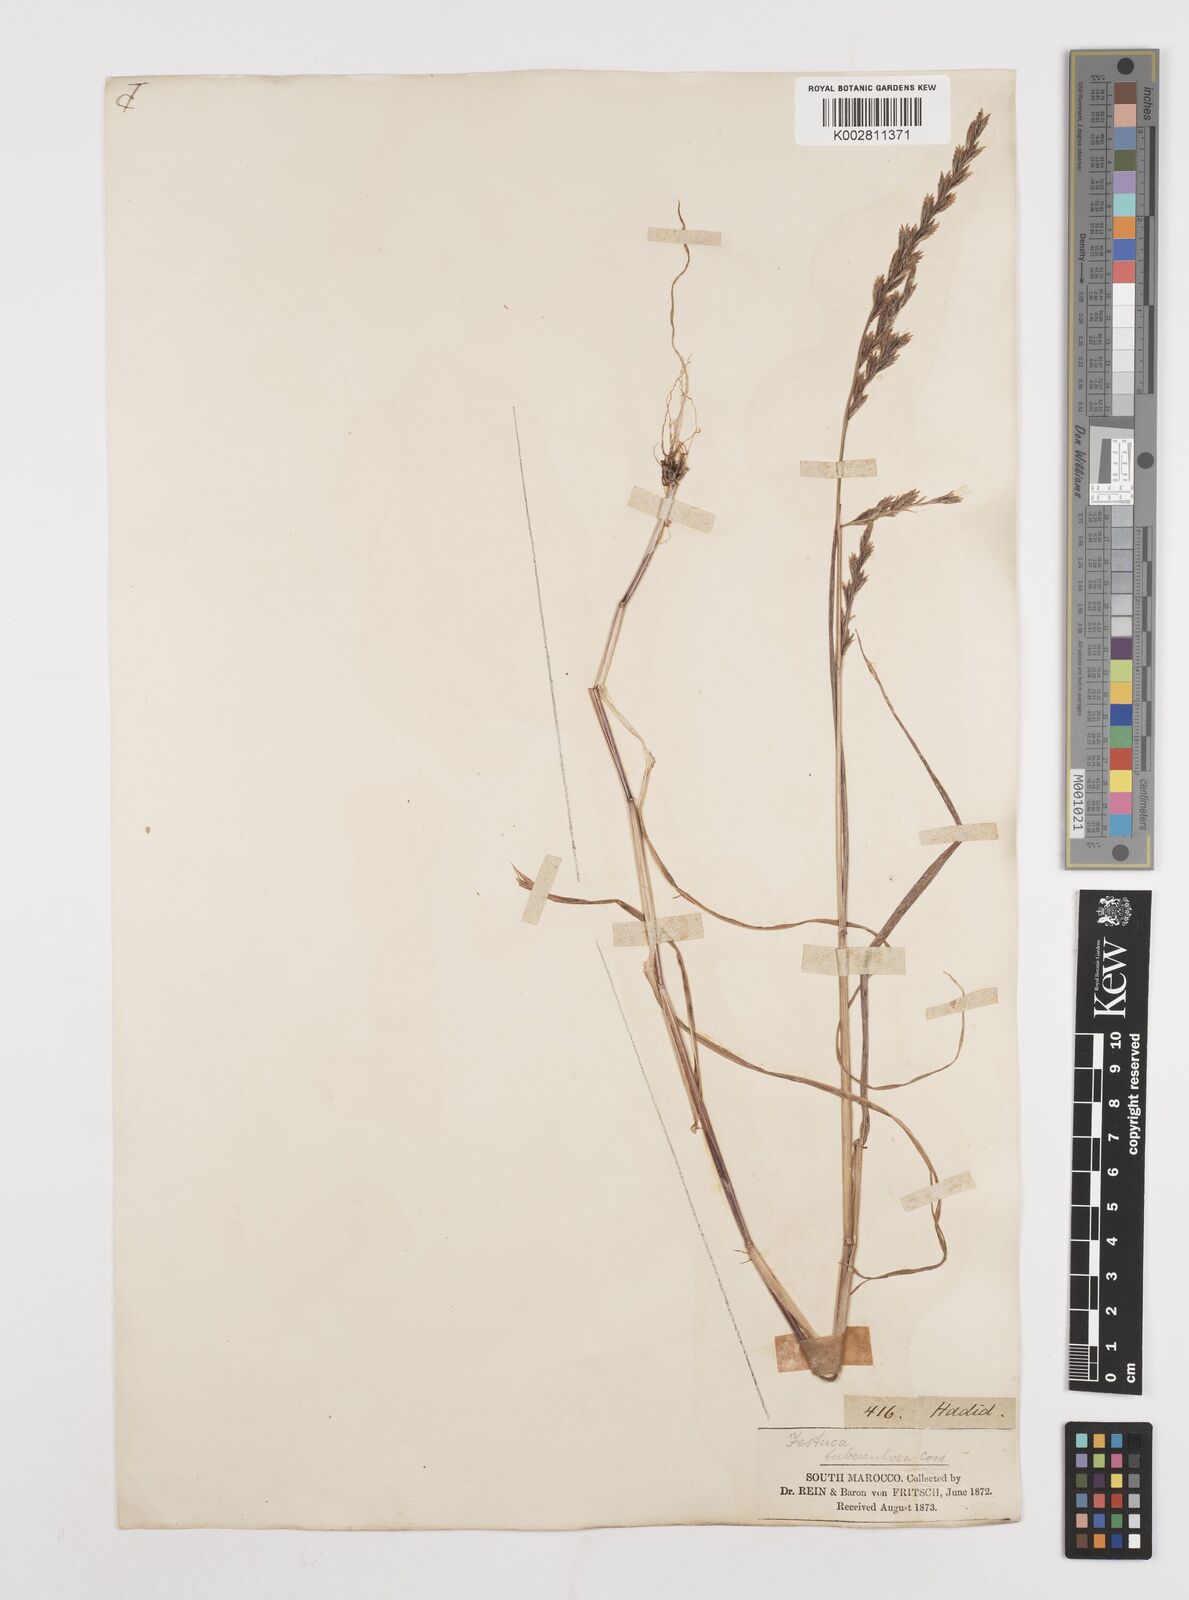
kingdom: Plantae
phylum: Tracheophyta
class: Liliopsida
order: Poales
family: Poaceae
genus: Castellia
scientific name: Castellia tuberculosa
